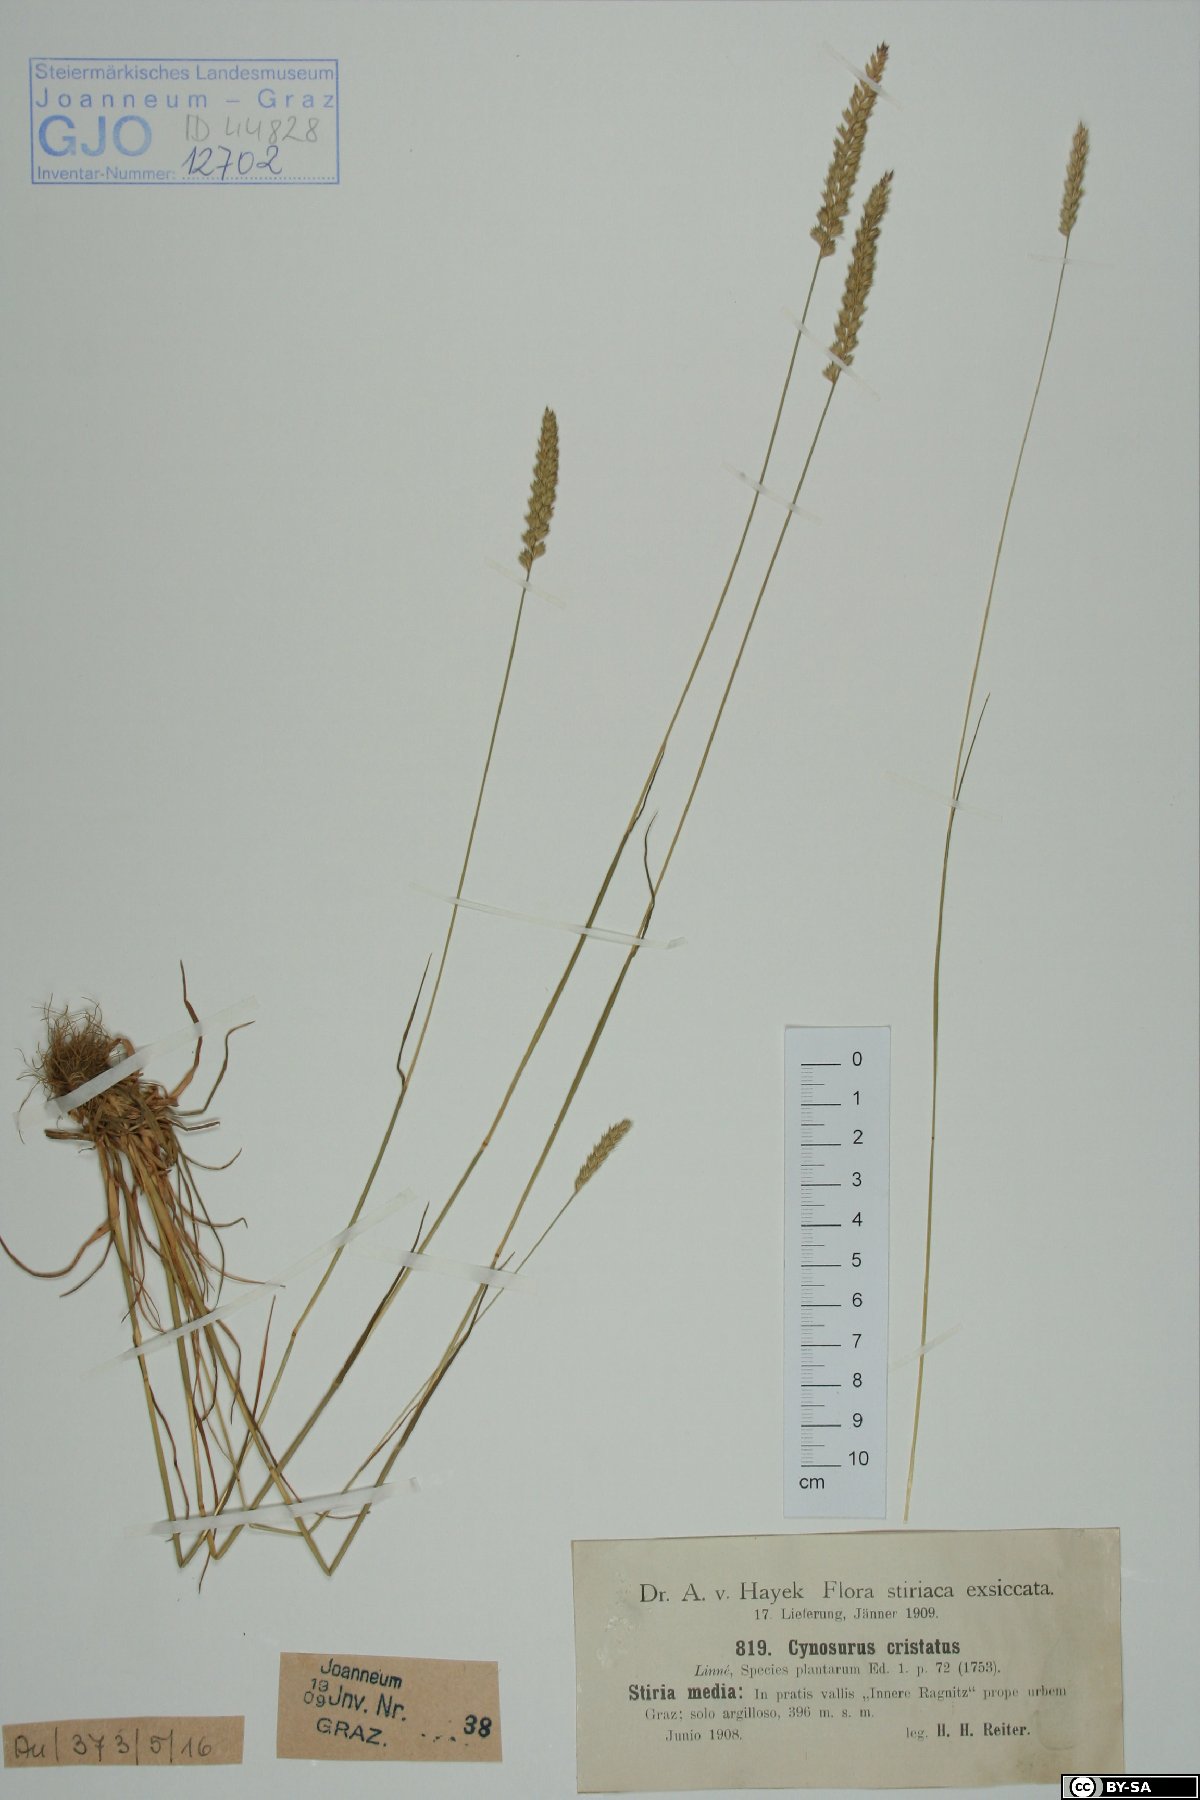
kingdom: Plantae
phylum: Tracheophyta
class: Liliopsida
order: Poales
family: Poaceae
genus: Cynosurus
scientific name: Cynosurus cristatus
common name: Crested dog's-tail
